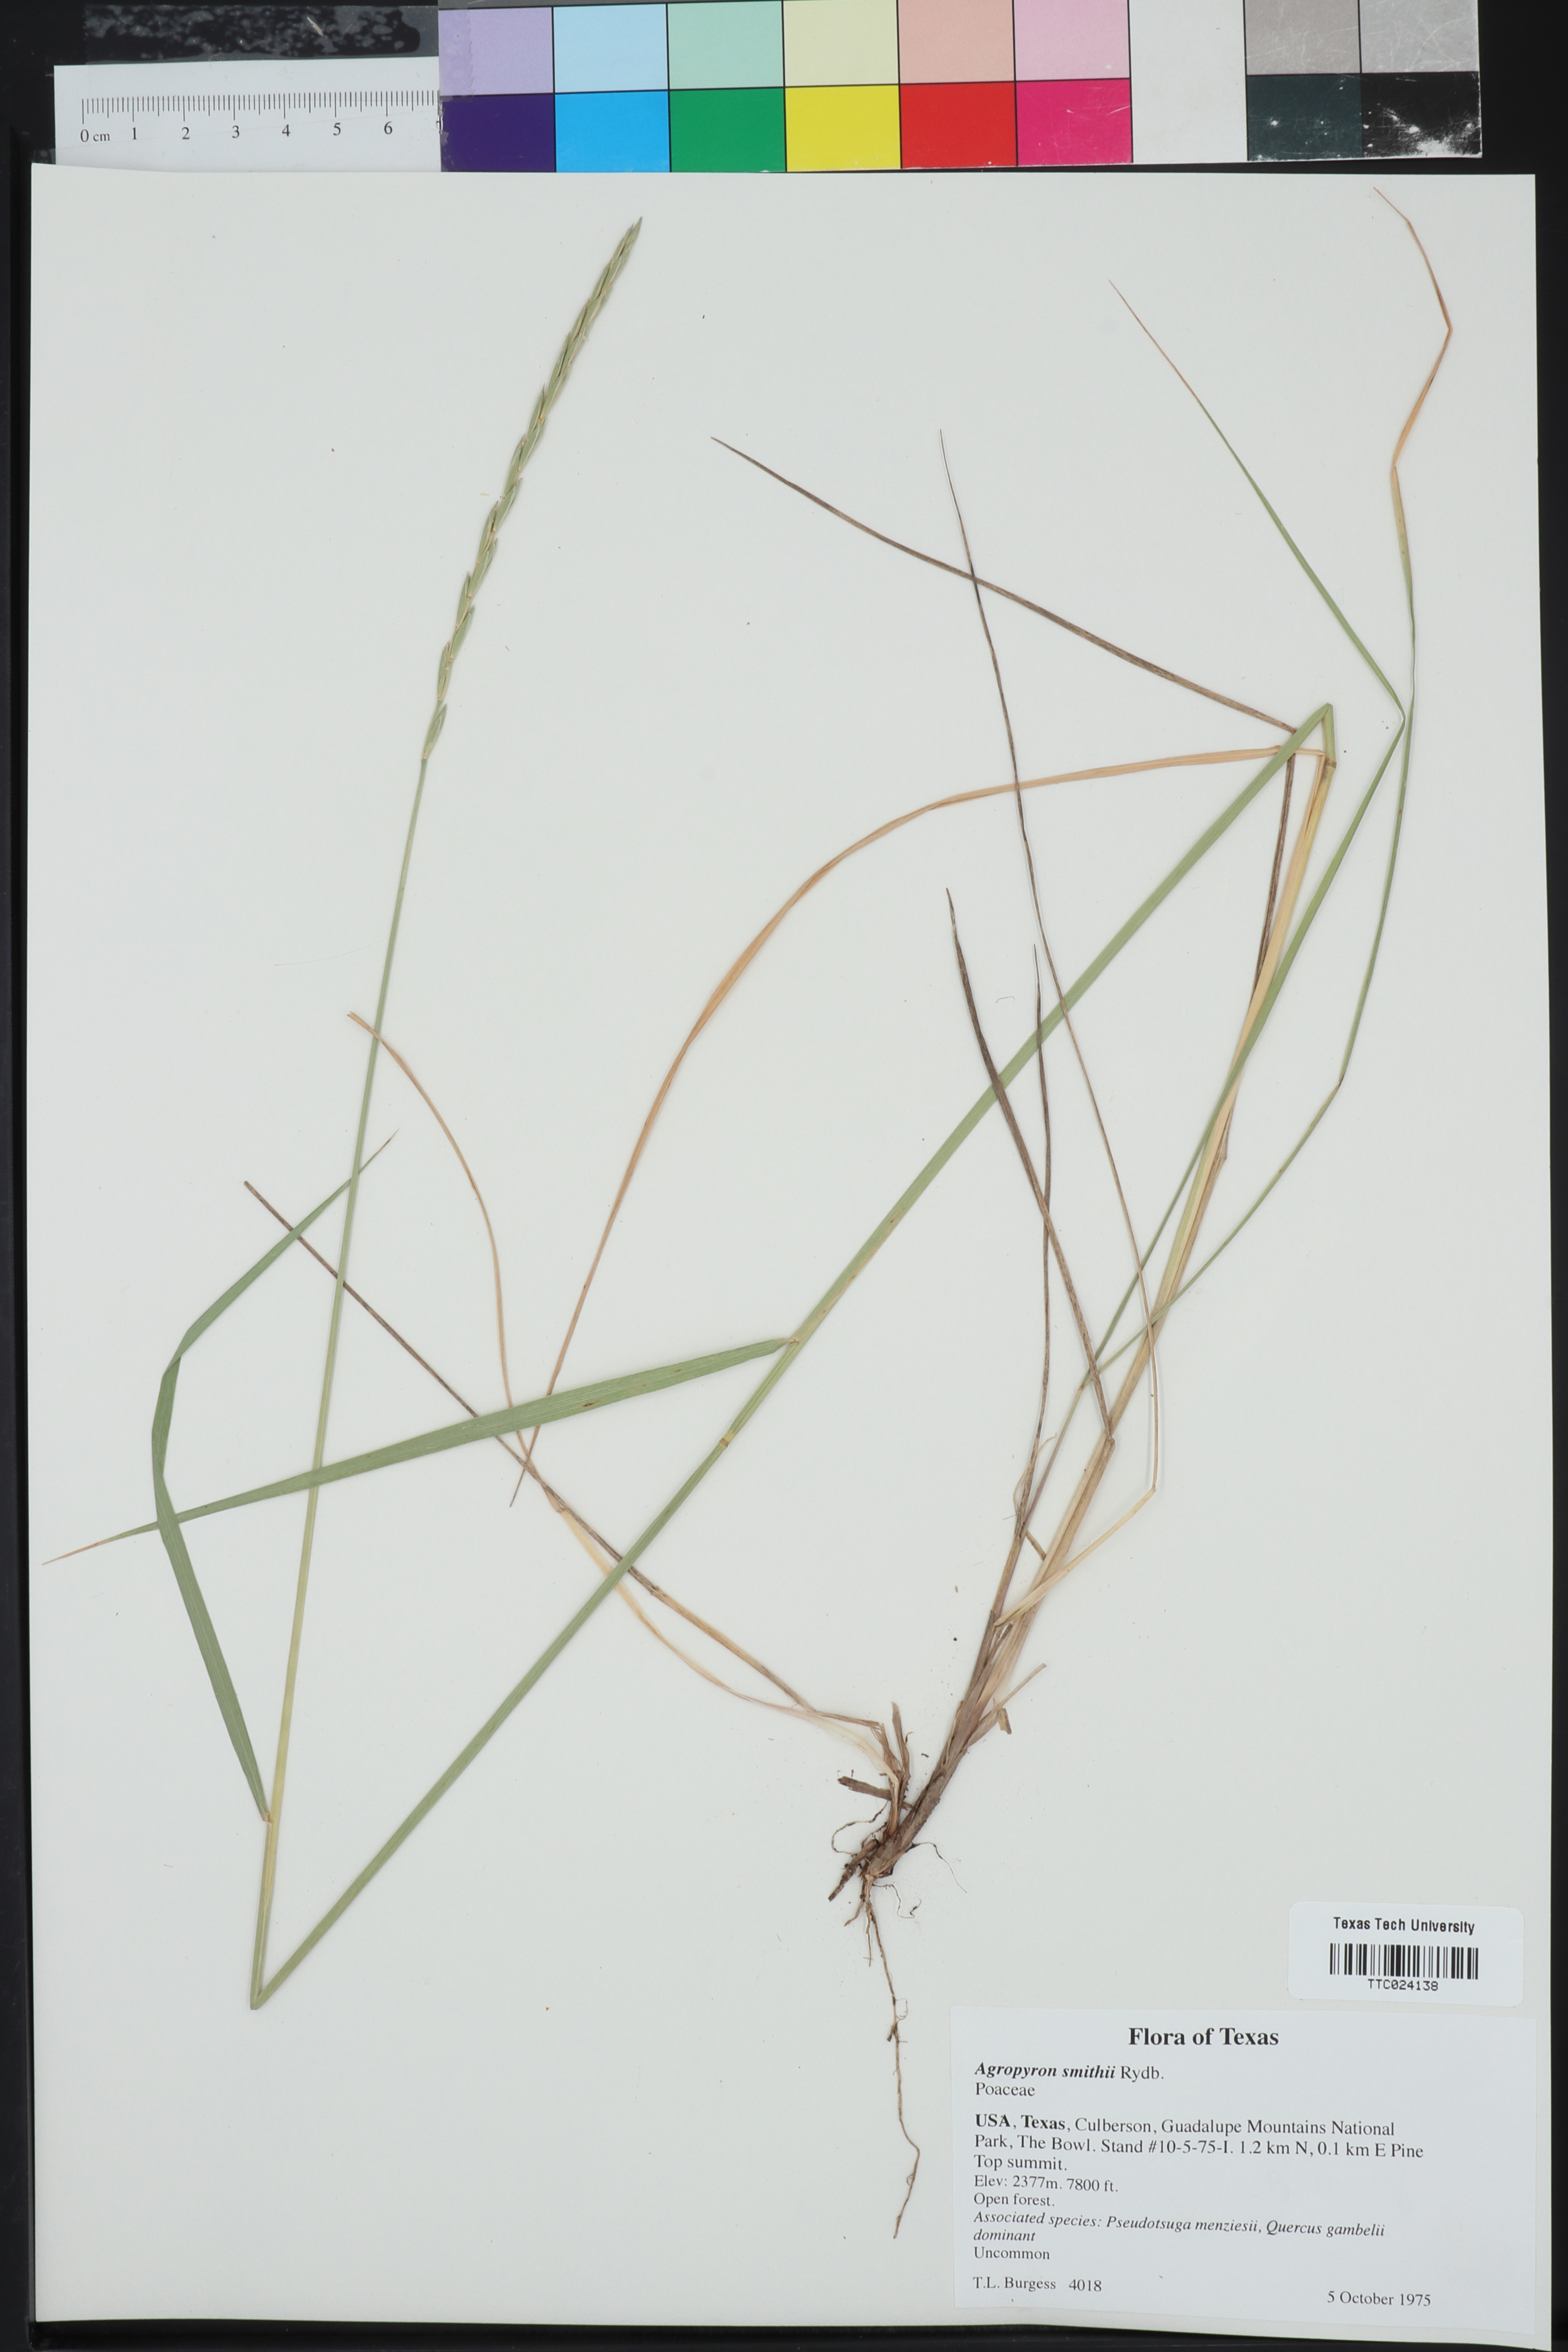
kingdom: Plantae
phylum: Tracheophyta
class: Liliopsida
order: Poales
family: Poaceae
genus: Elymus
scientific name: Elymus smithii
